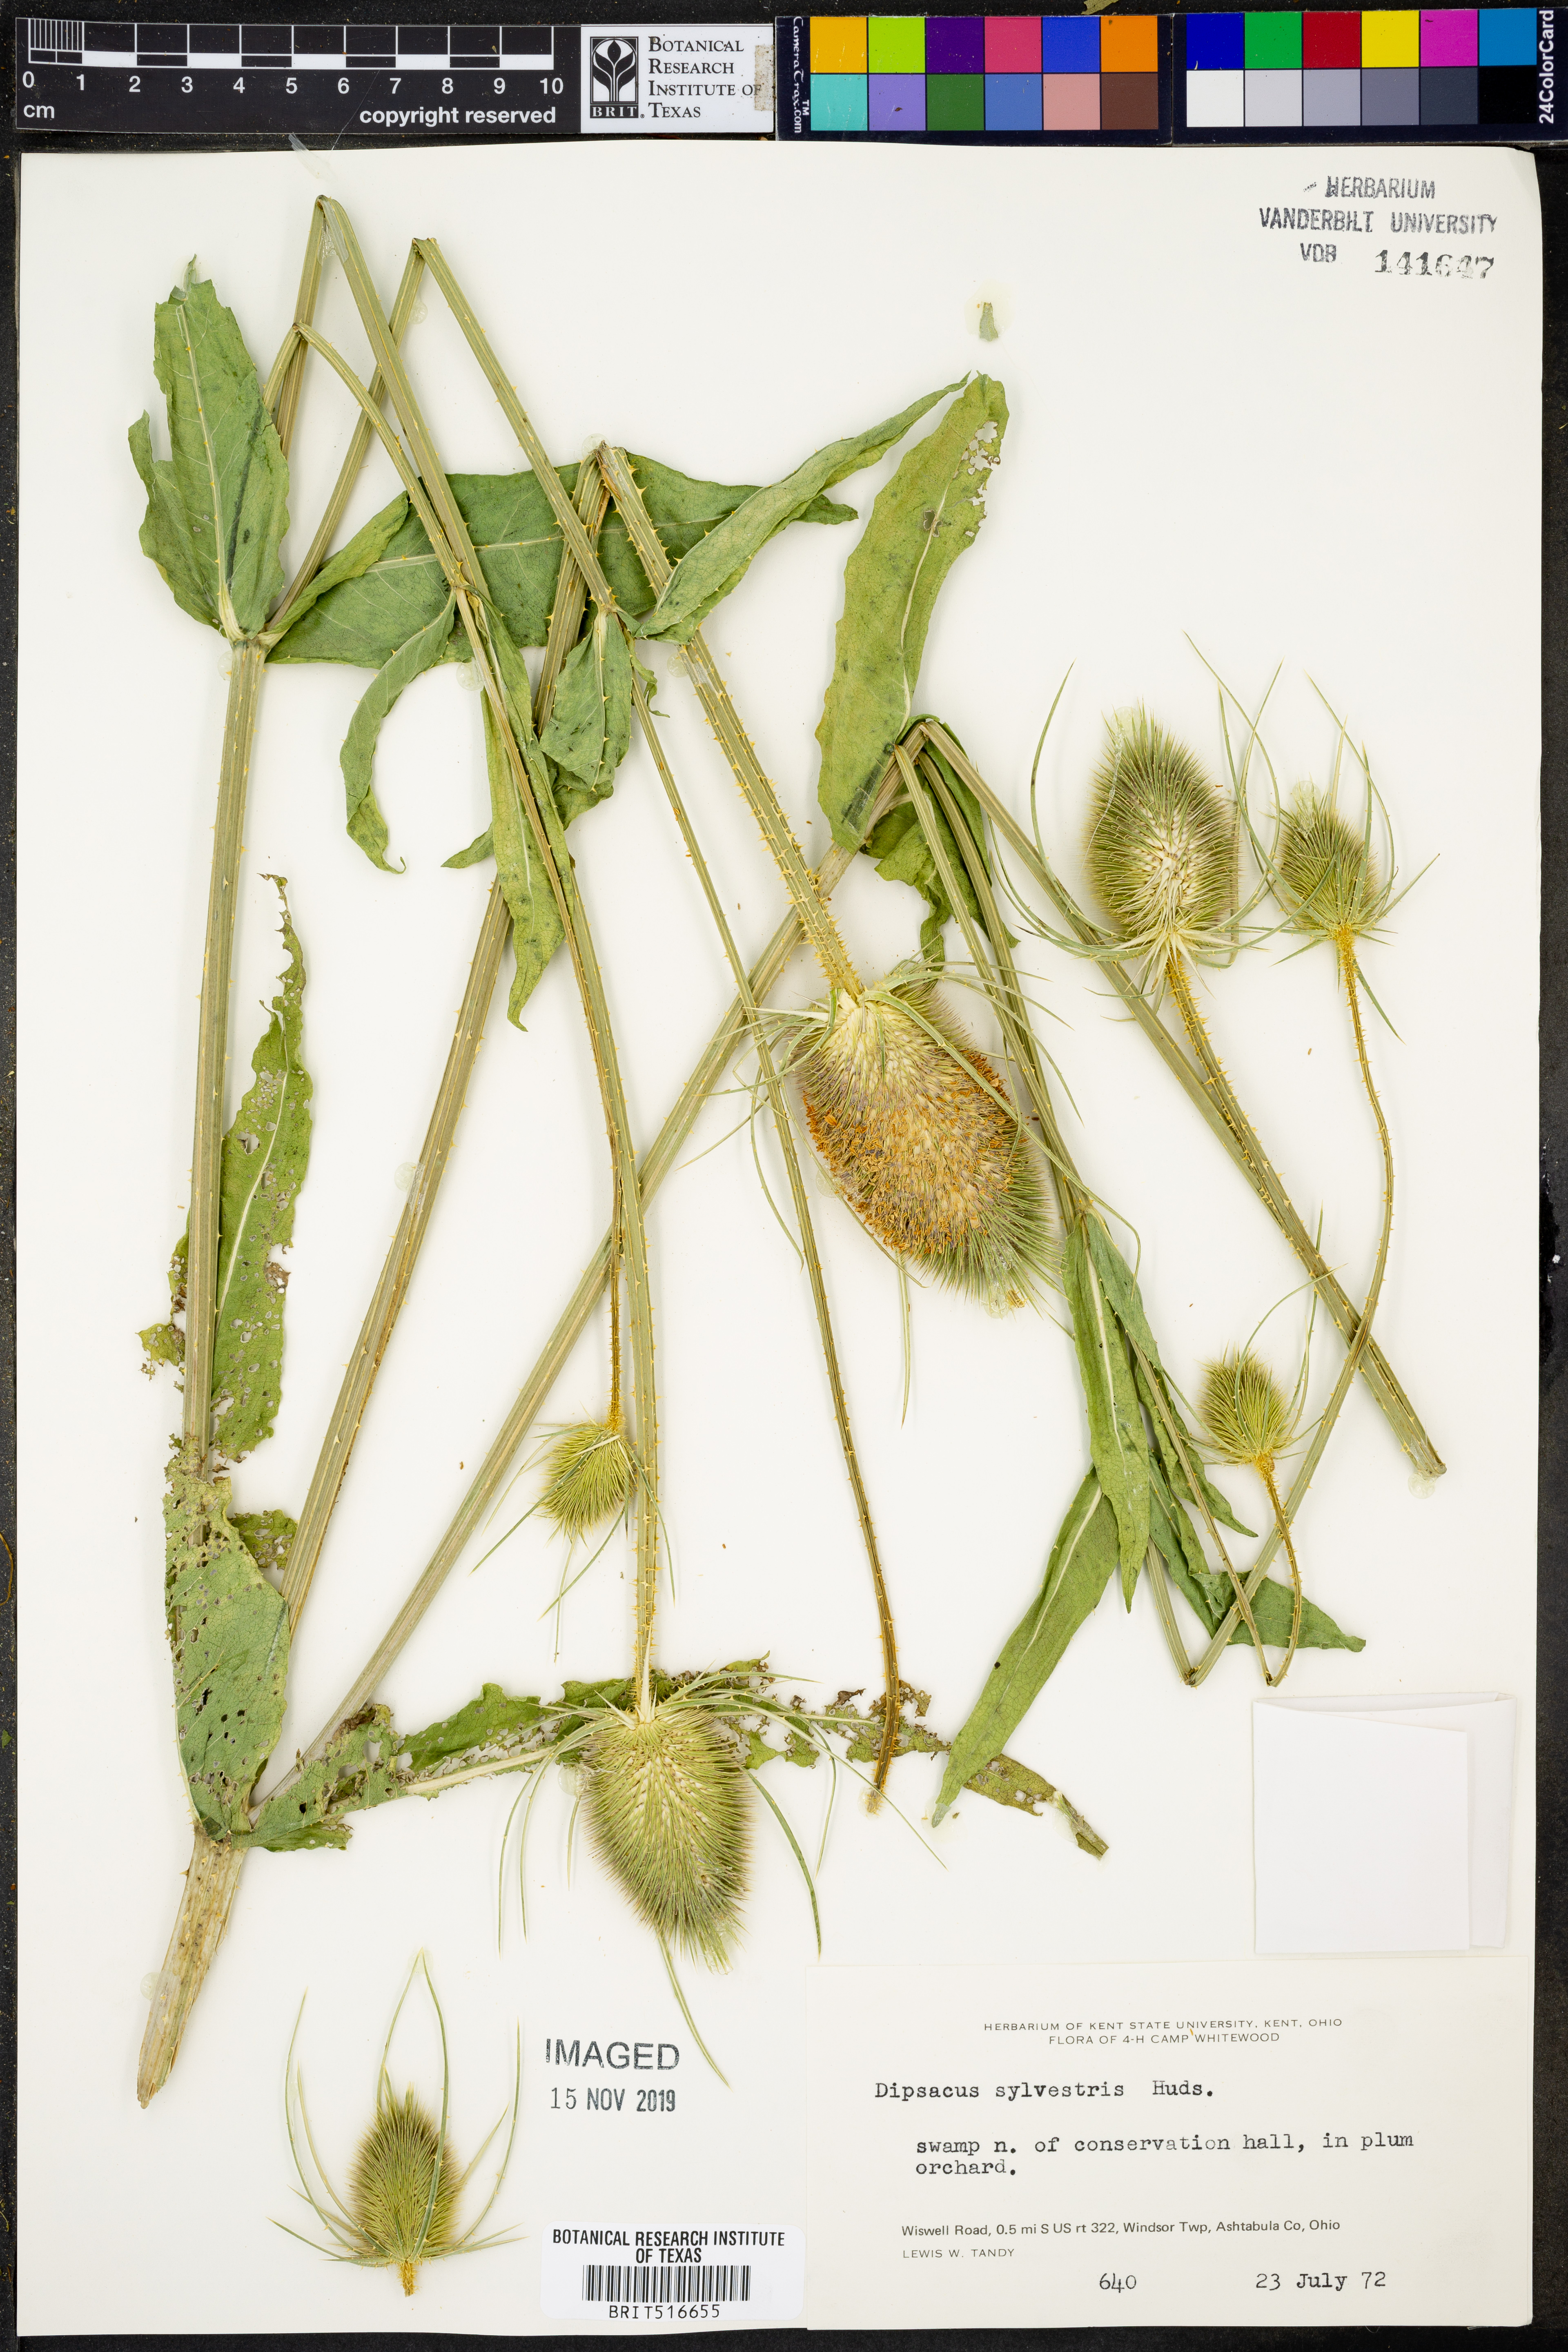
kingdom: Plantae
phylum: Tracheophyta
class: Magnoliopsida
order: Dipsacales
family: Caprifoliaceae
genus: Dipsacus
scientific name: Dipsacus fullonum
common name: Teasel
